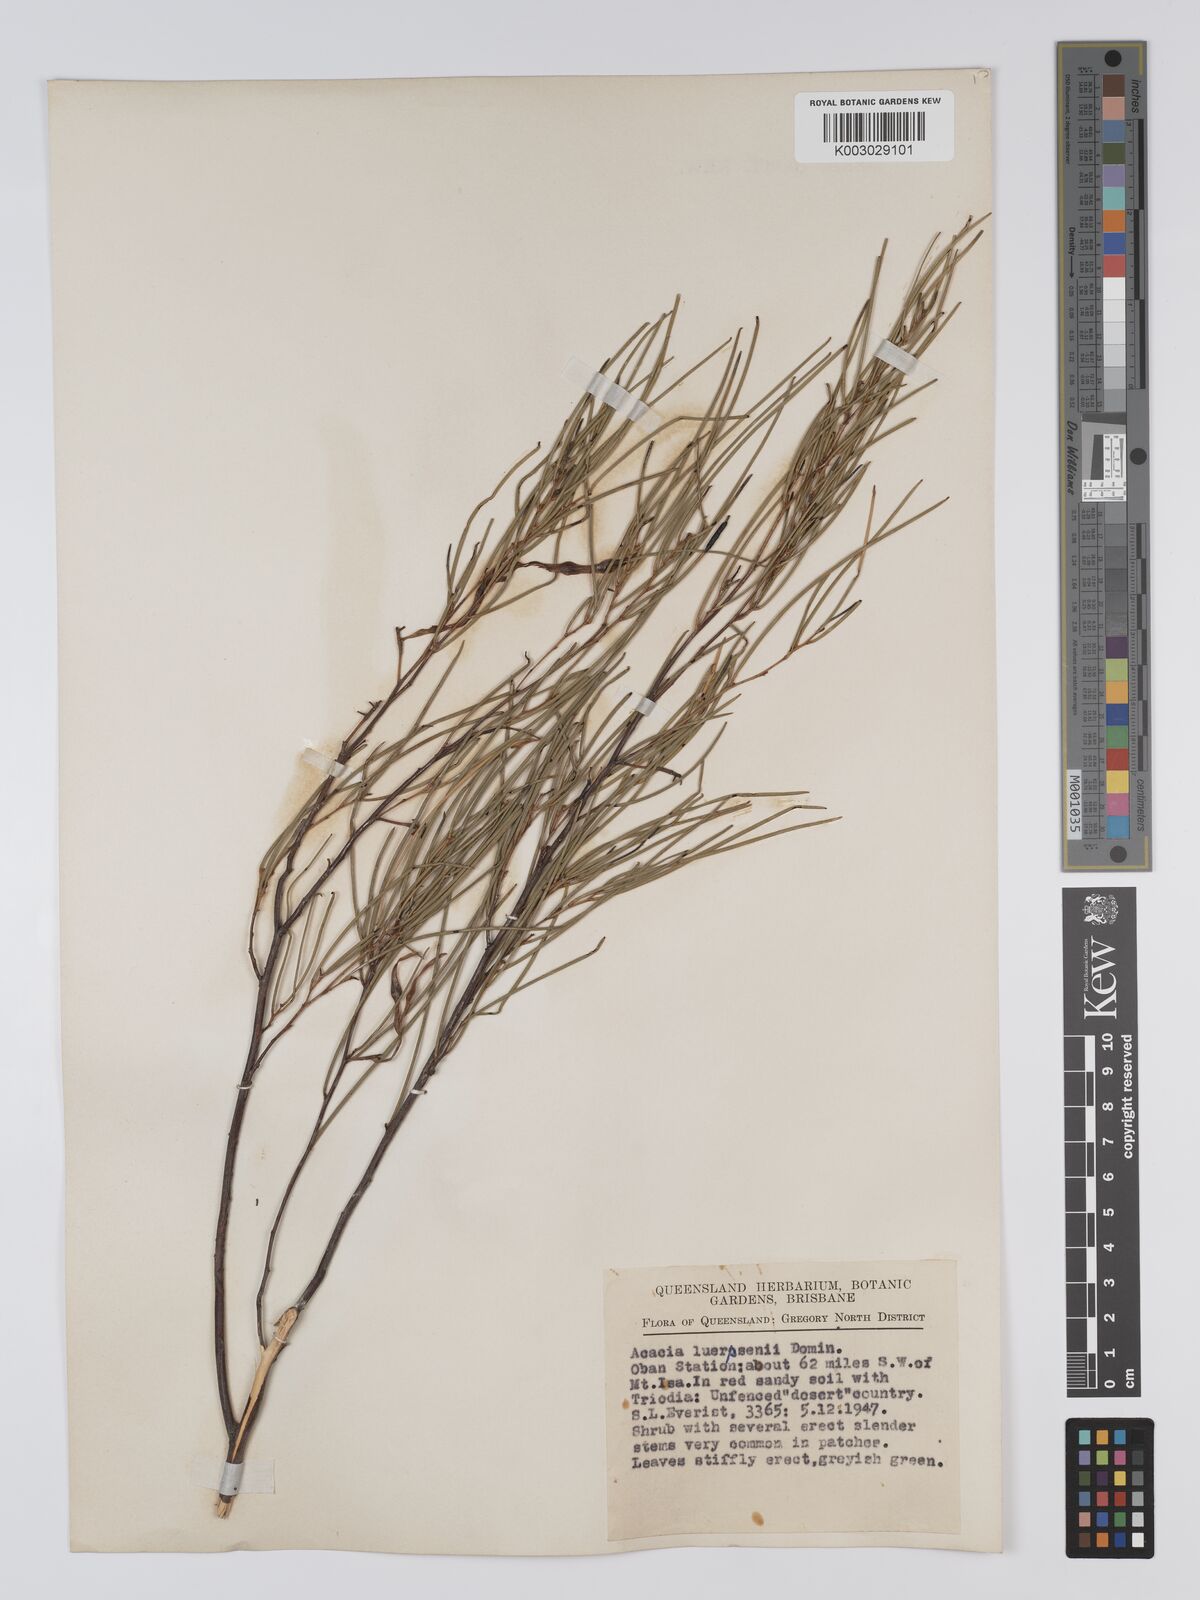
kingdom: Plantae
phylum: Tracheophyta
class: Magnoliopsida
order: Fabales
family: Fabaceae
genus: Acacia
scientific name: Acacia tenuissima
